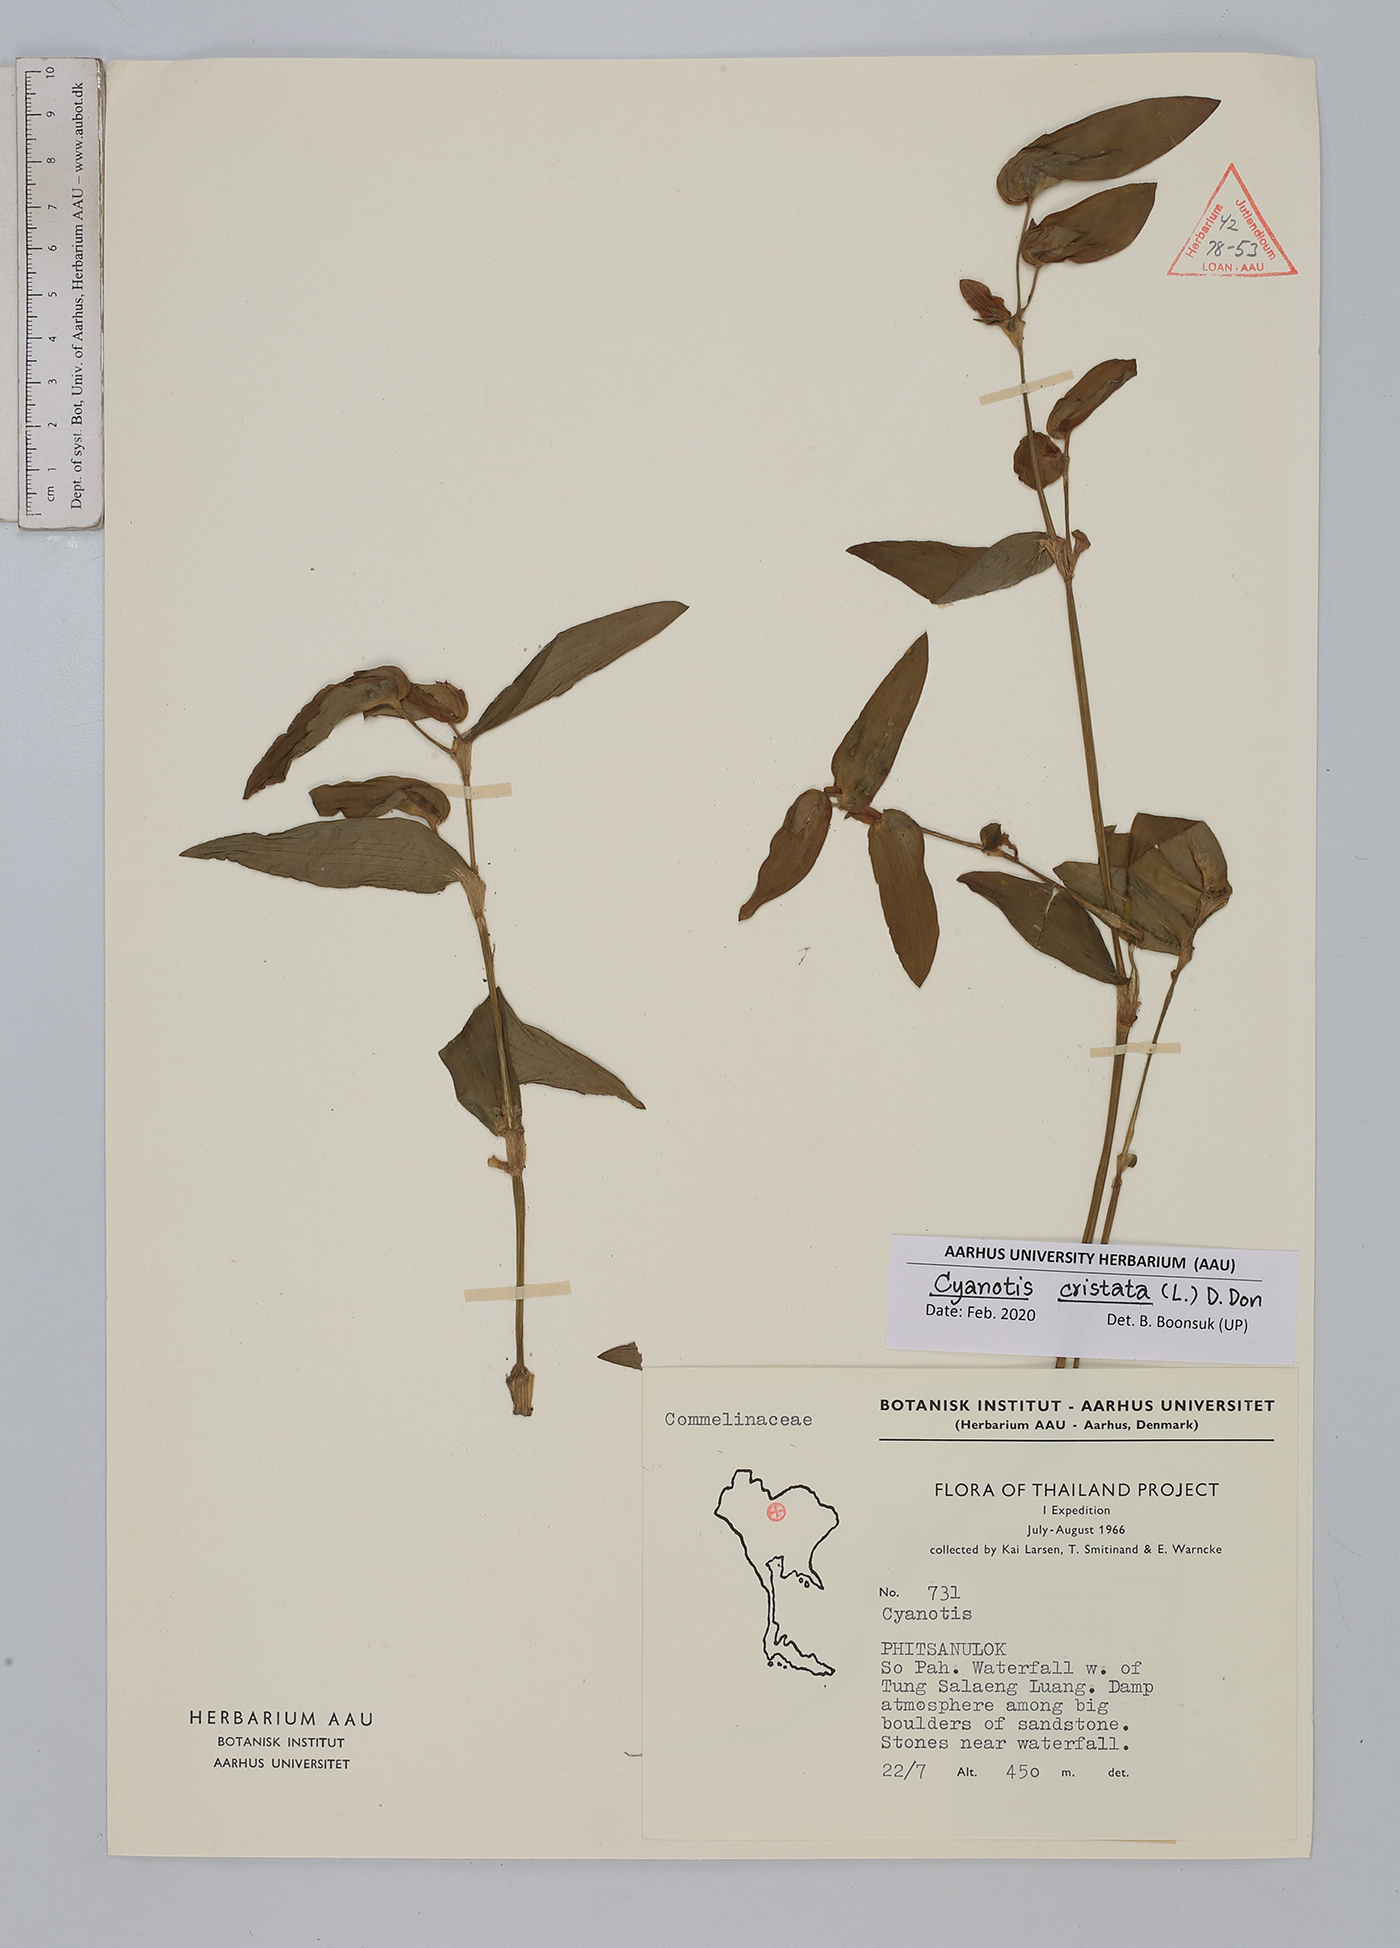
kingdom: Plantae
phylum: Tracheophyta
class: Liliopsida
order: Commelinales
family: Commelinaceae
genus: Cyanotis
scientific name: Cyanotis cristata
